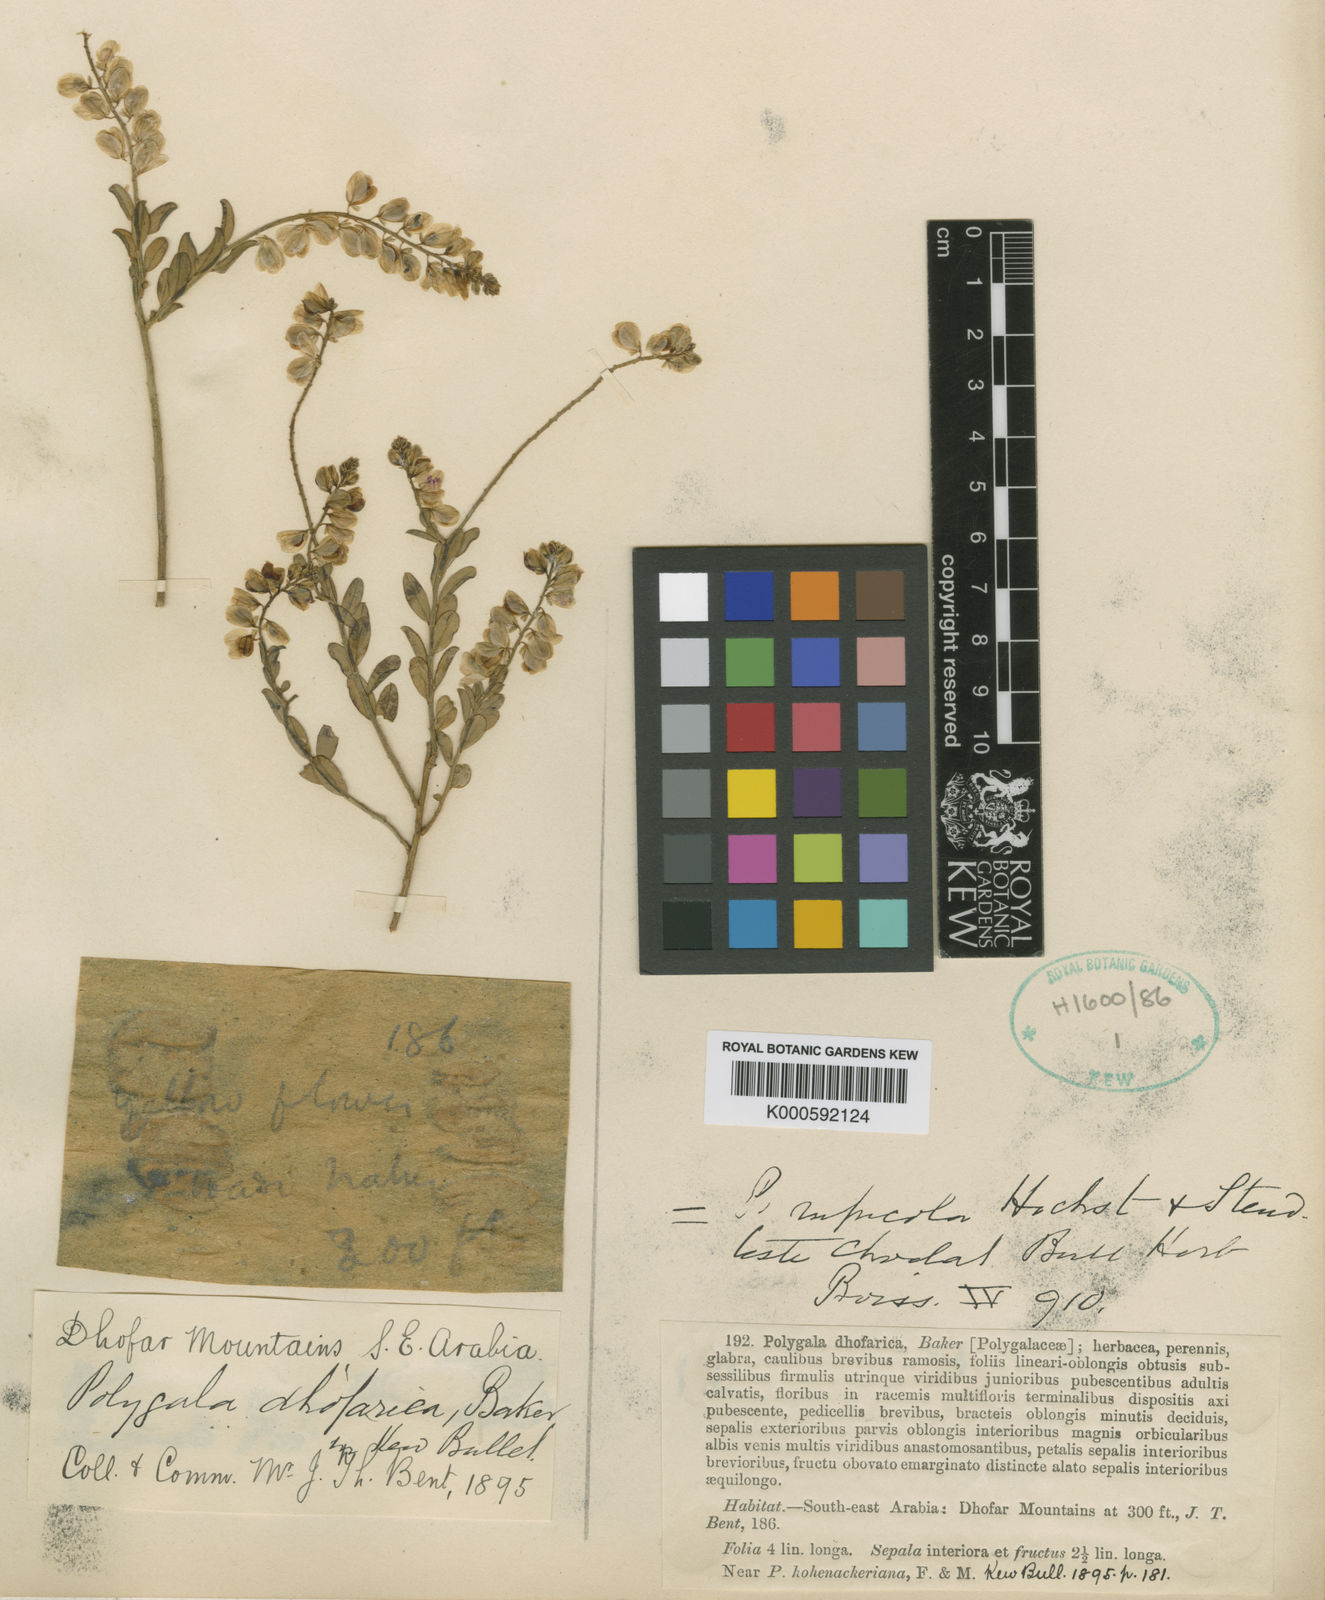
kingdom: Plantae
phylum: Tracheophyta
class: Magnoliopsida
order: Fabales
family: Polygalaceae
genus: Polygala
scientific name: Polygala
